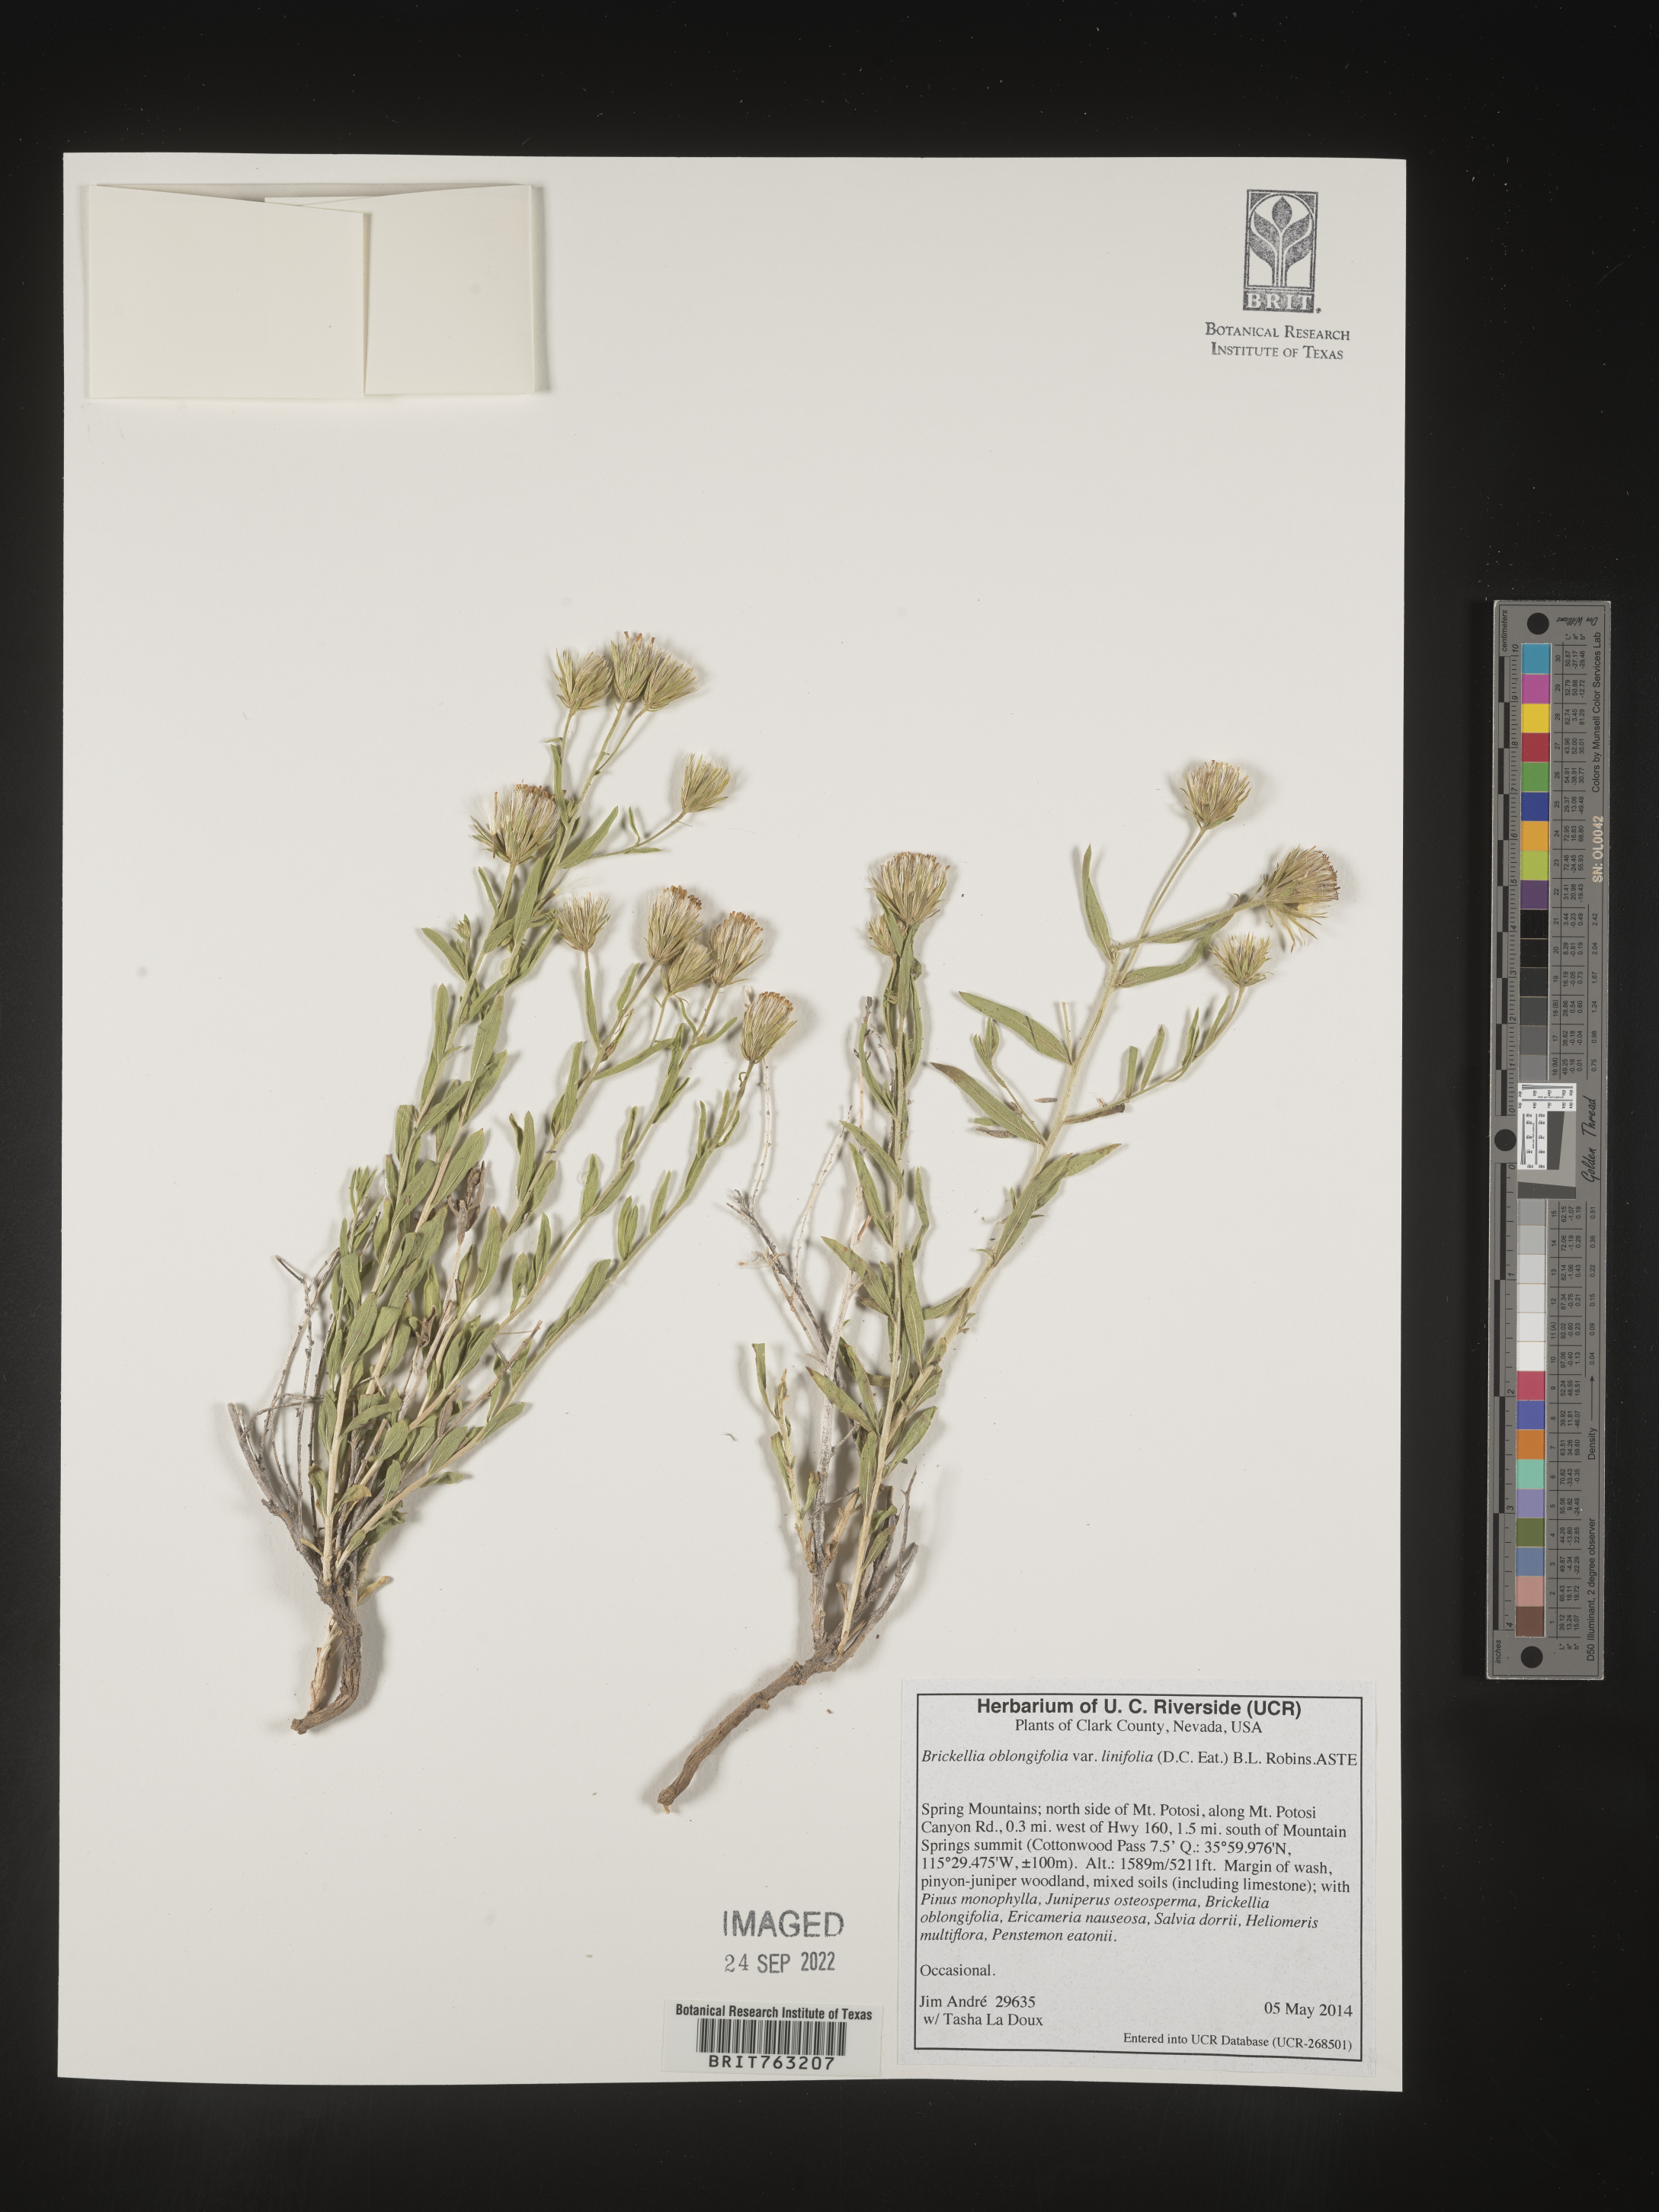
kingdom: Plantae
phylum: Tracheophyta
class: Magnoliopsida
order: Asterales
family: Asteraceae
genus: Brickellia
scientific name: Brickellia oblongifolia
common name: Mojave brickellbush
